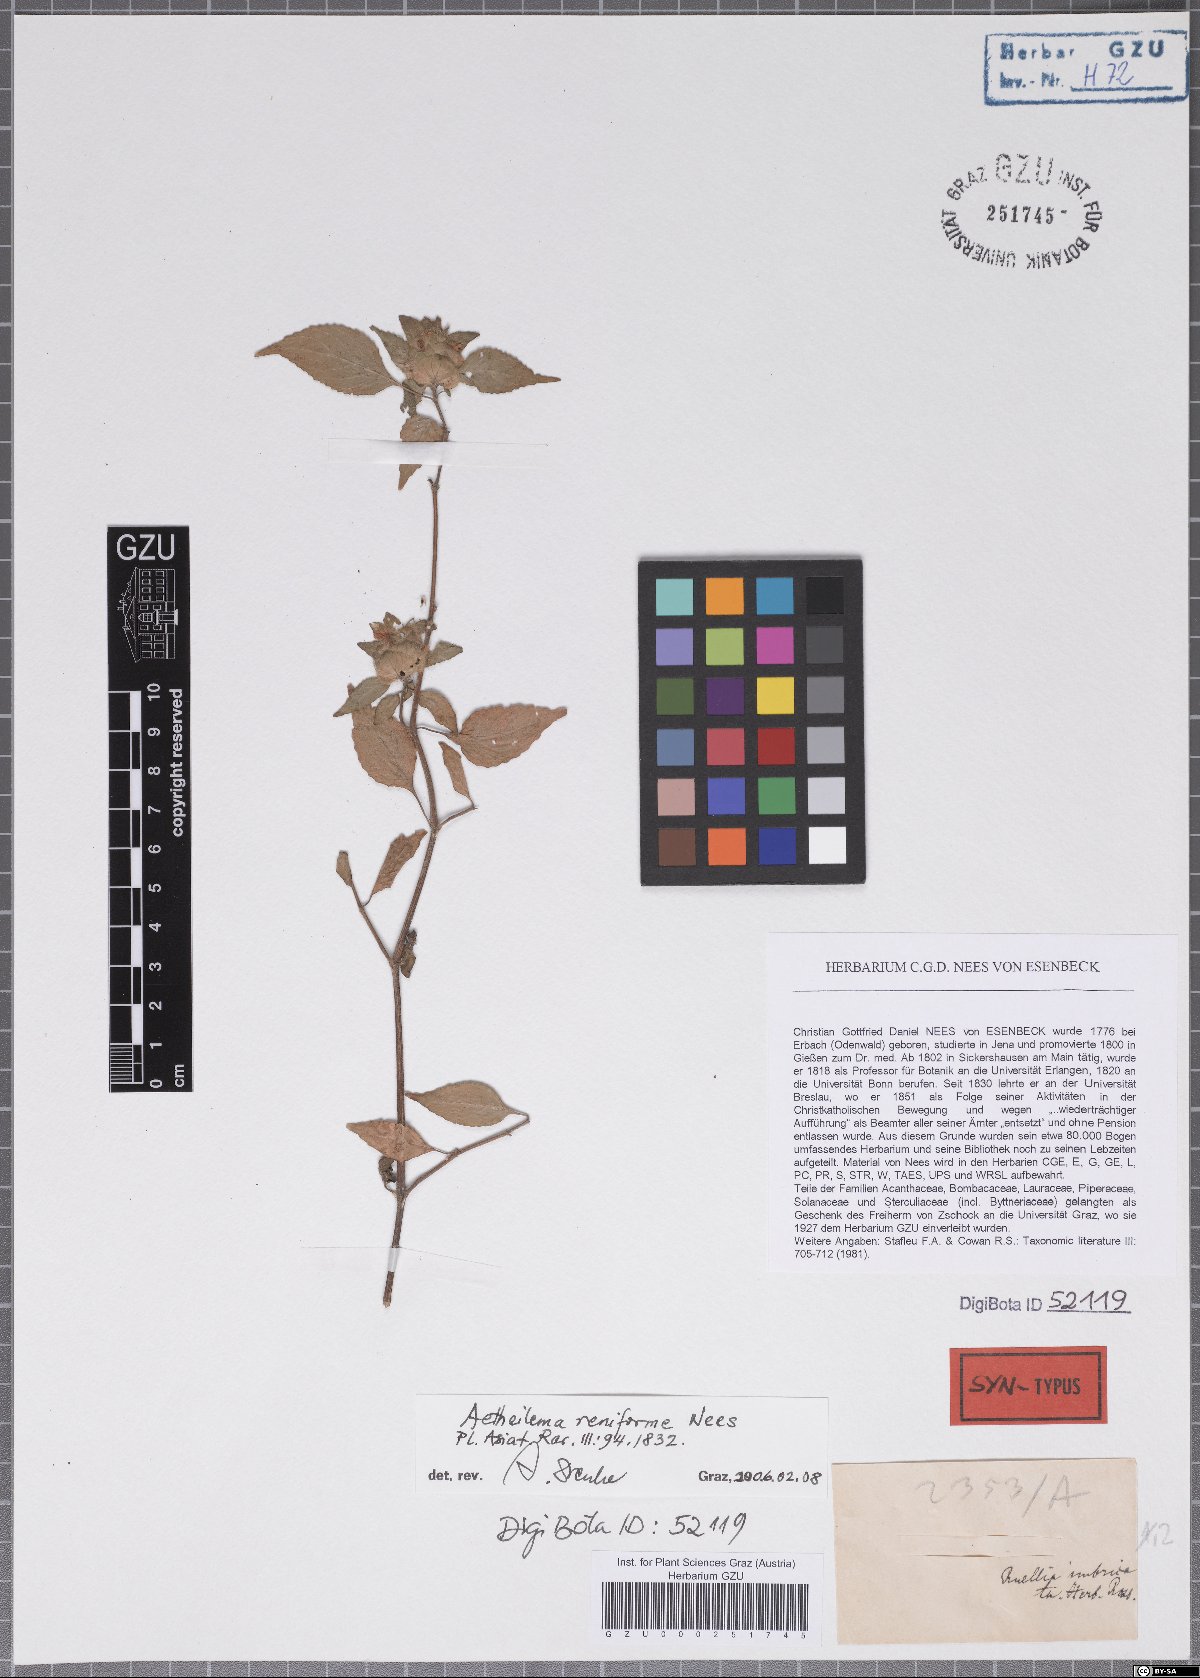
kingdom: Plantae
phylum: Tracheophyta
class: Magnoliopsida
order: Lamiales
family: Acanthaceae
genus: Phaulopsis
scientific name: Phaulopsis dorsiflora
